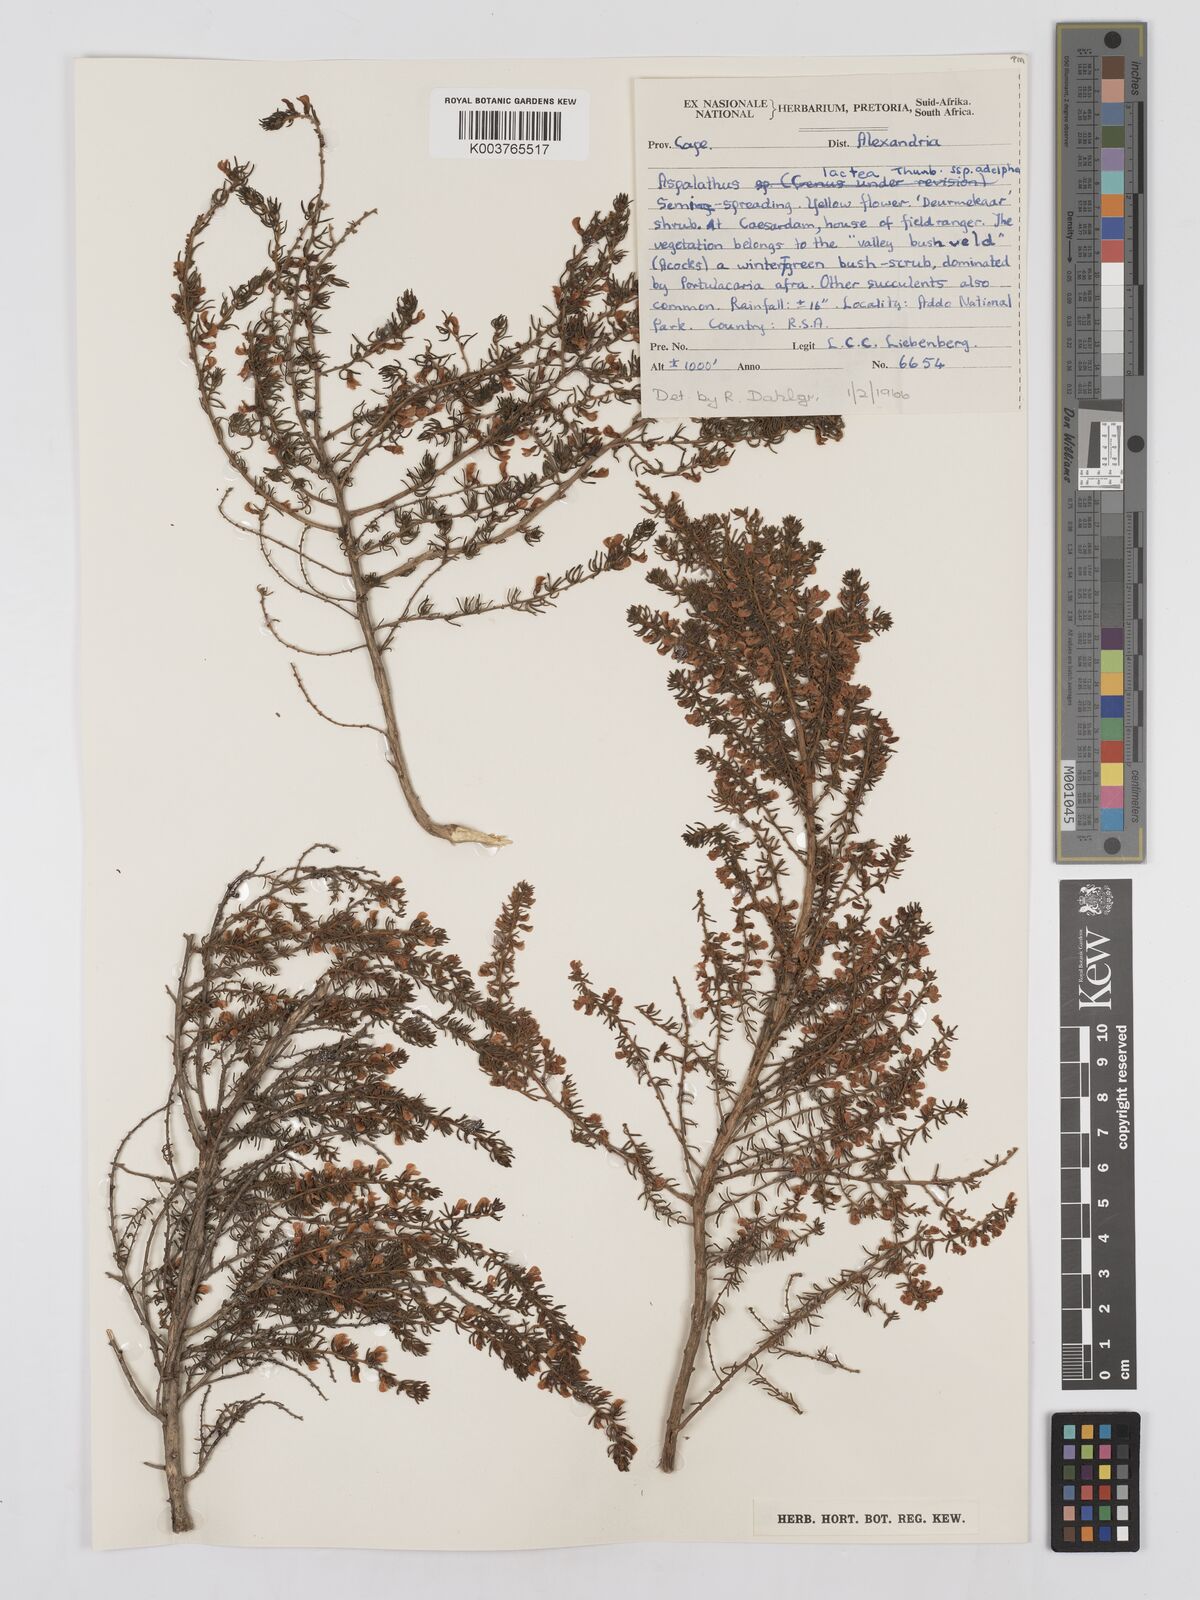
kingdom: Plantae
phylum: Tracheophyta
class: Magnoliopsida
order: Fabales
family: Fabaceae
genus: Aspalathus
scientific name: Aspalathus lactea
